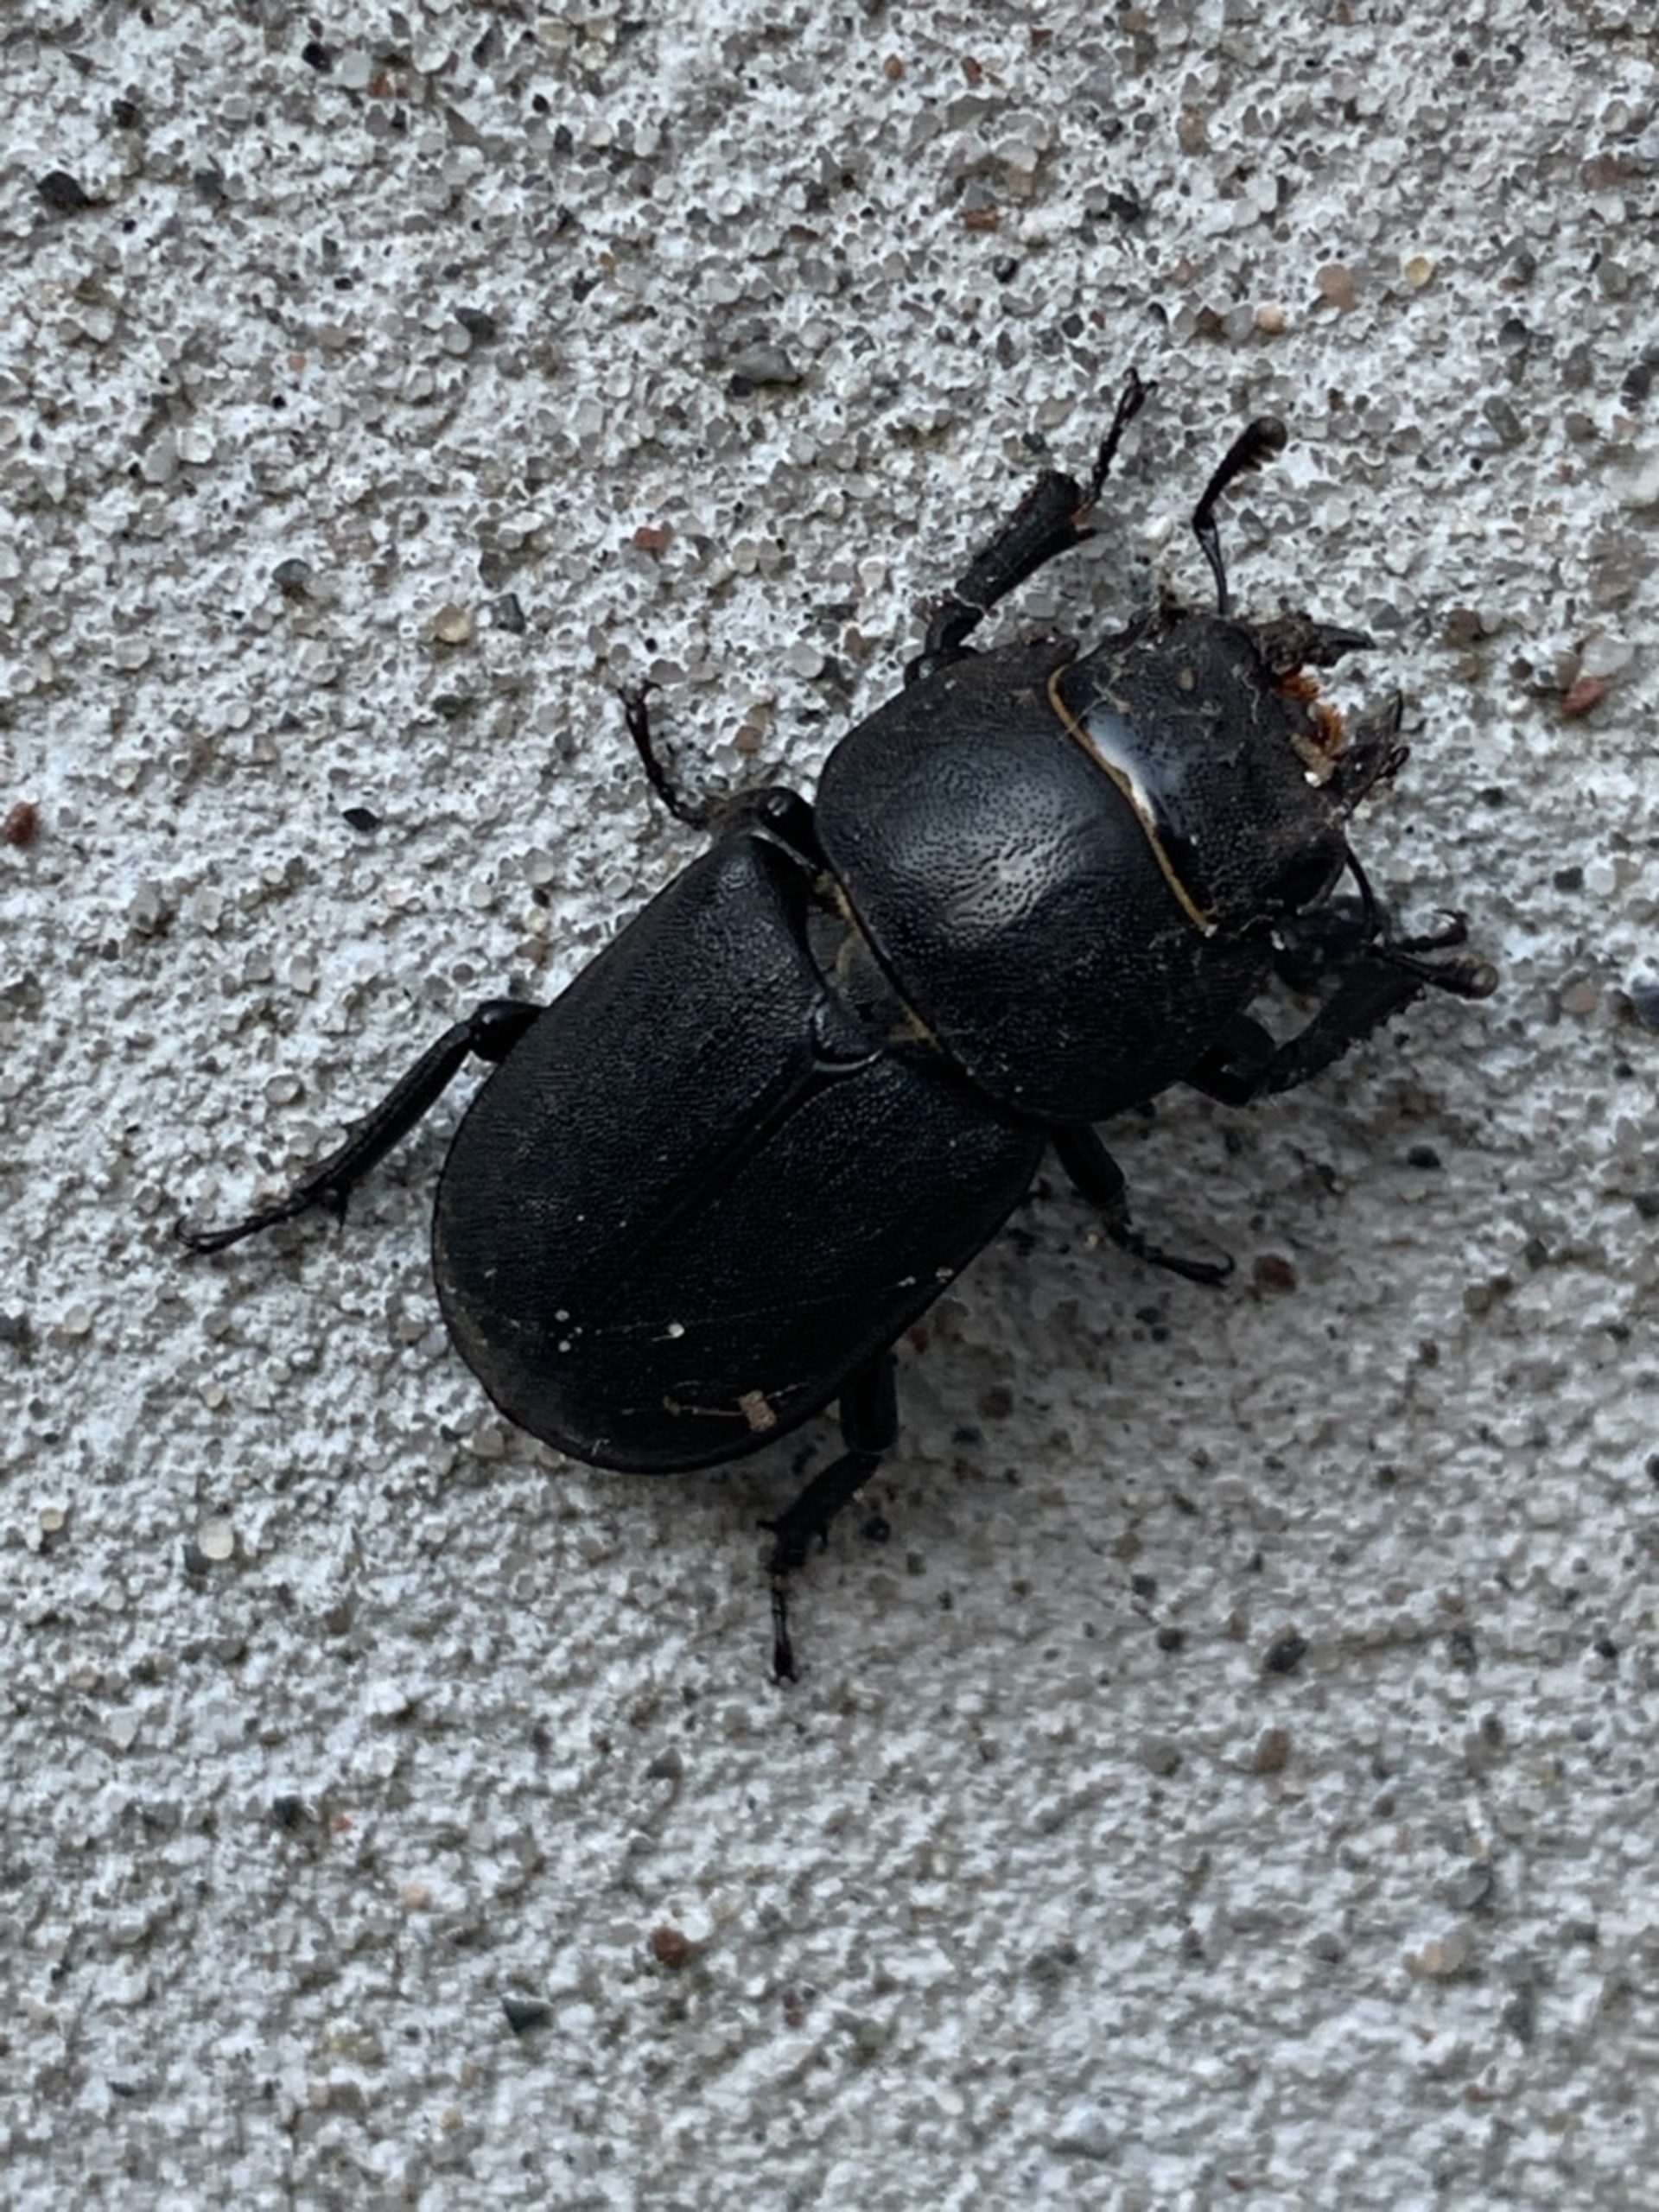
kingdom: Animalia
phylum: Arthropoda
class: Insecta
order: Coleoptera
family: Lucanidae
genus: Dorcus
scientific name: Dorcus parallelipipedus
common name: Bøghjort
